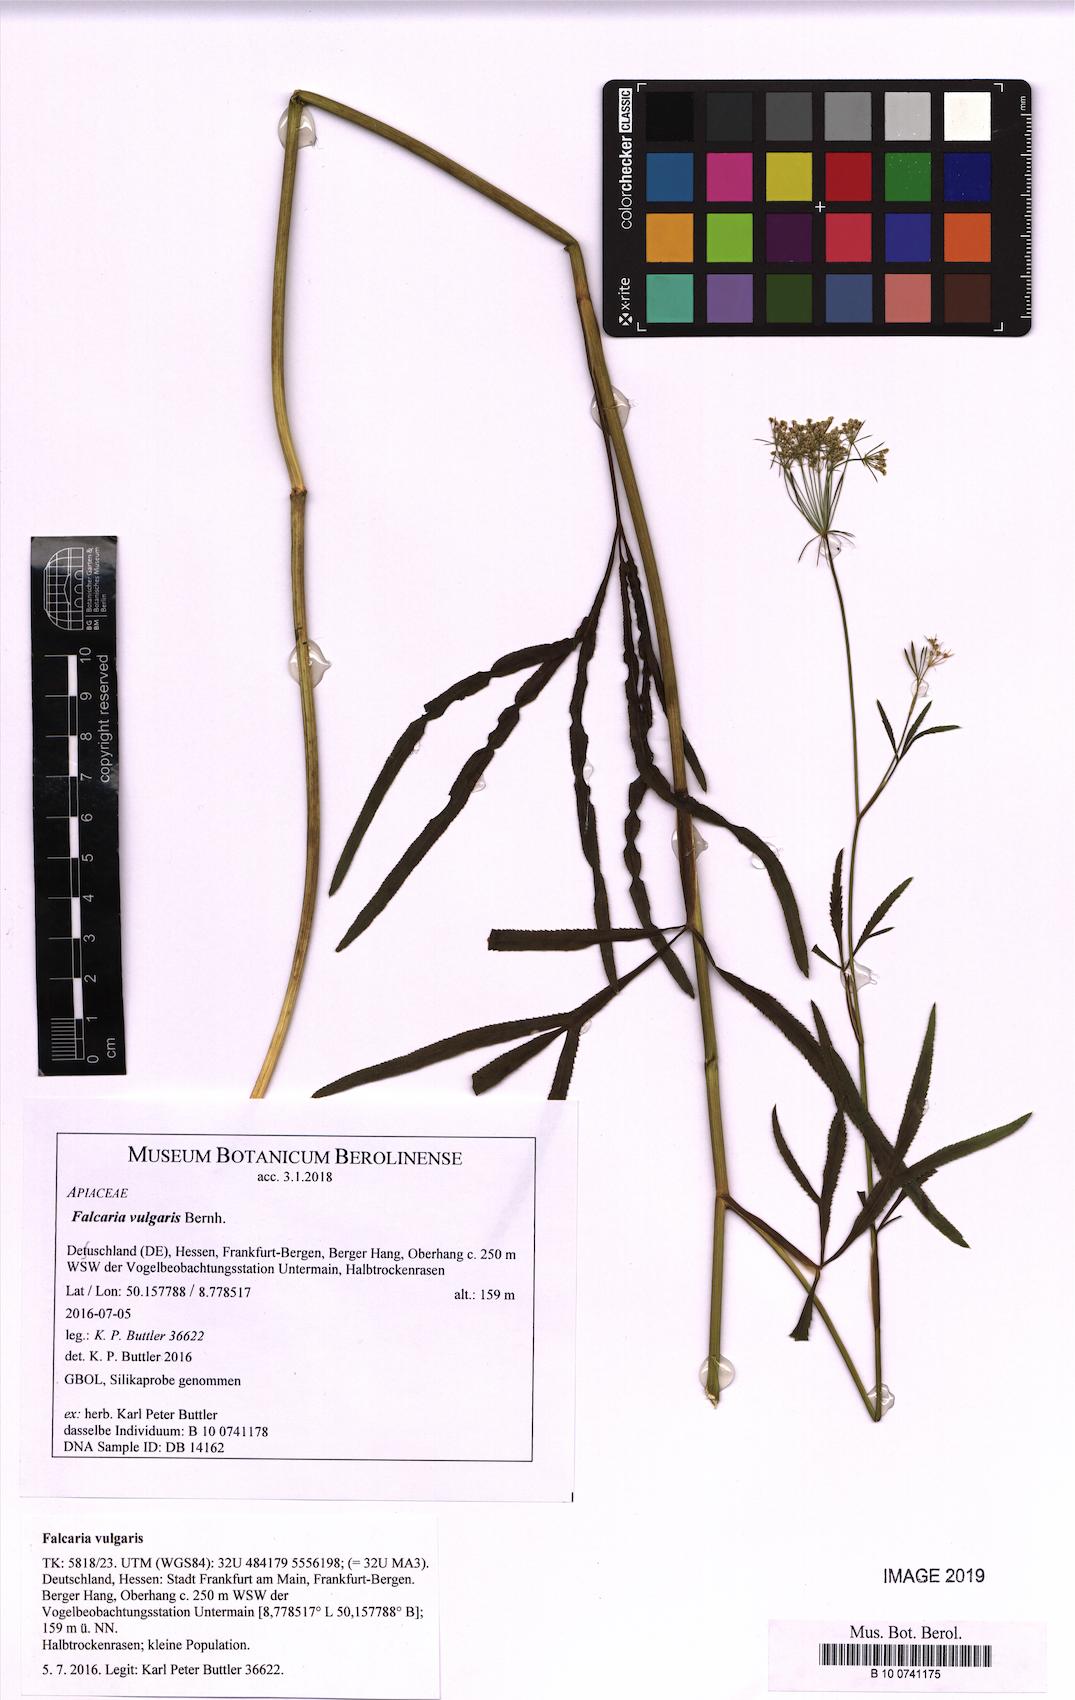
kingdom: Plantae
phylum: Tracheophyta
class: Magnoliopsida
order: Apiales
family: Apiaceae
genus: Falcaria
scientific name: Falcaria vulgaris
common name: Longleaf
